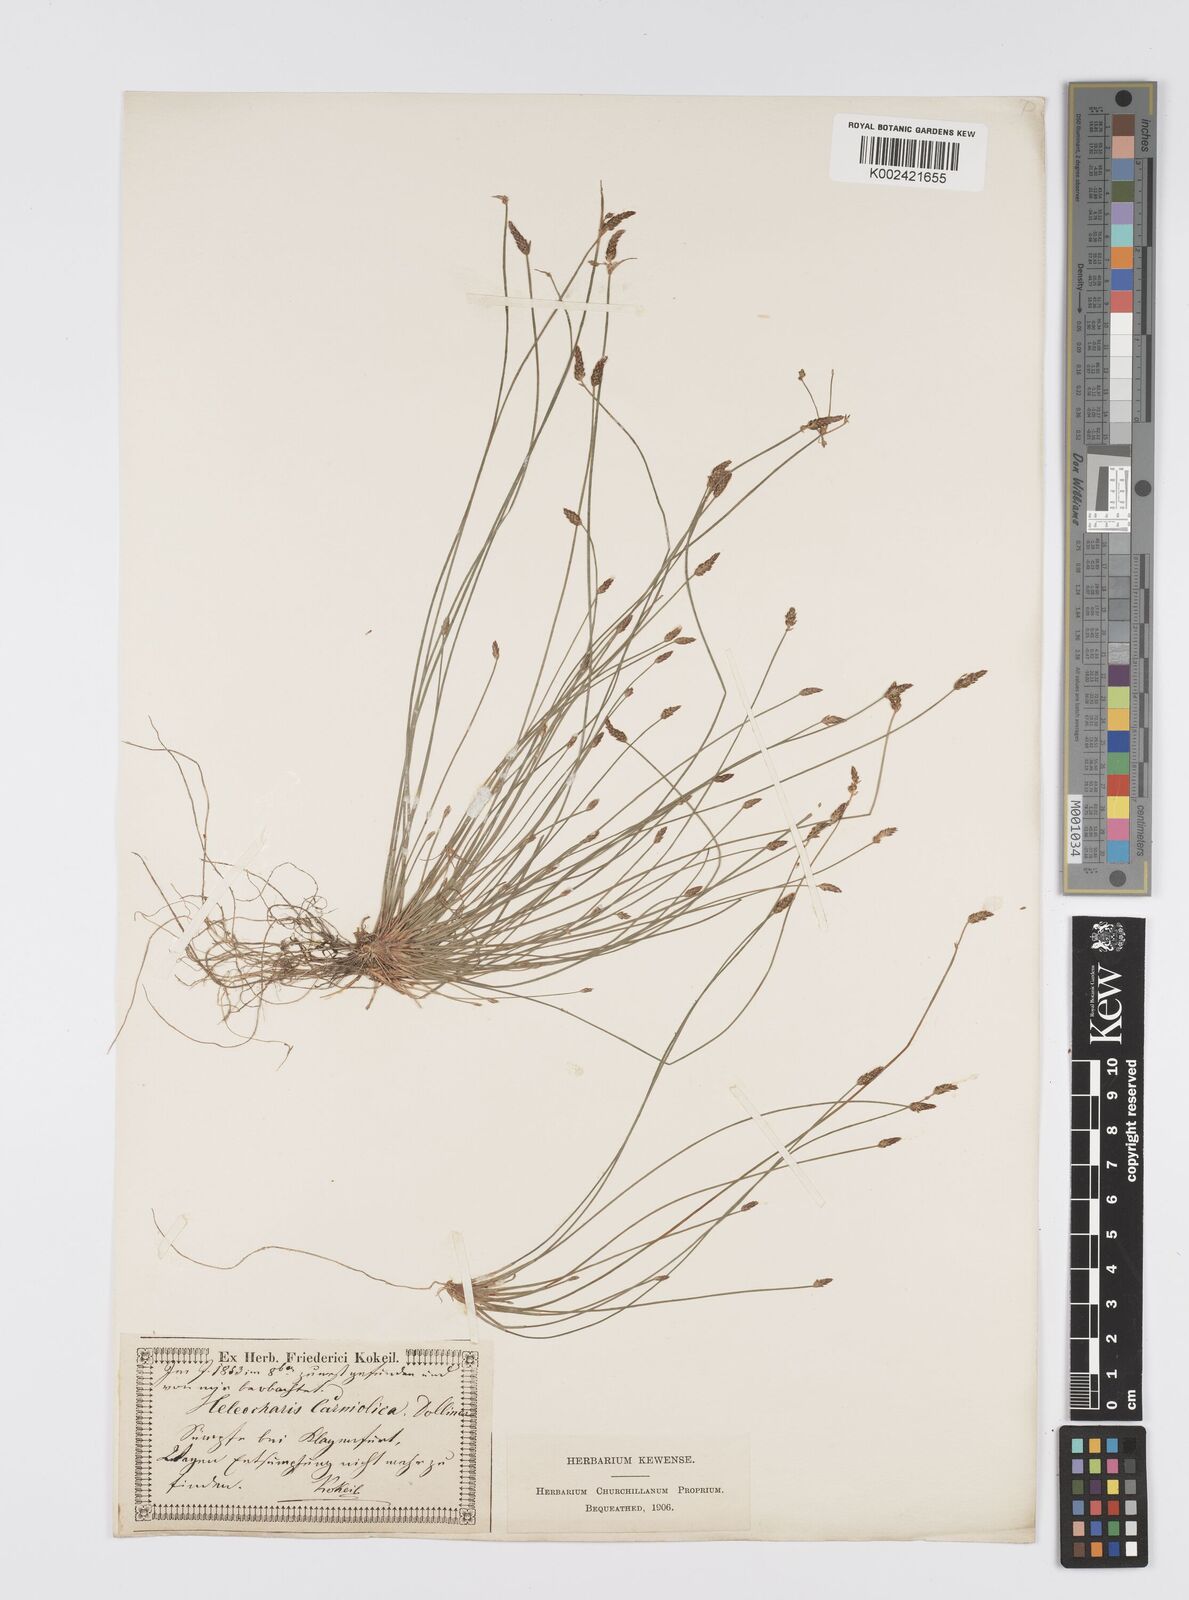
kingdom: Plantae
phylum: Tracheophyta
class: Liliopsida
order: Poales
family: Cyperaceae
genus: Eleocharis
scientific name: Eleocharis carniolica
